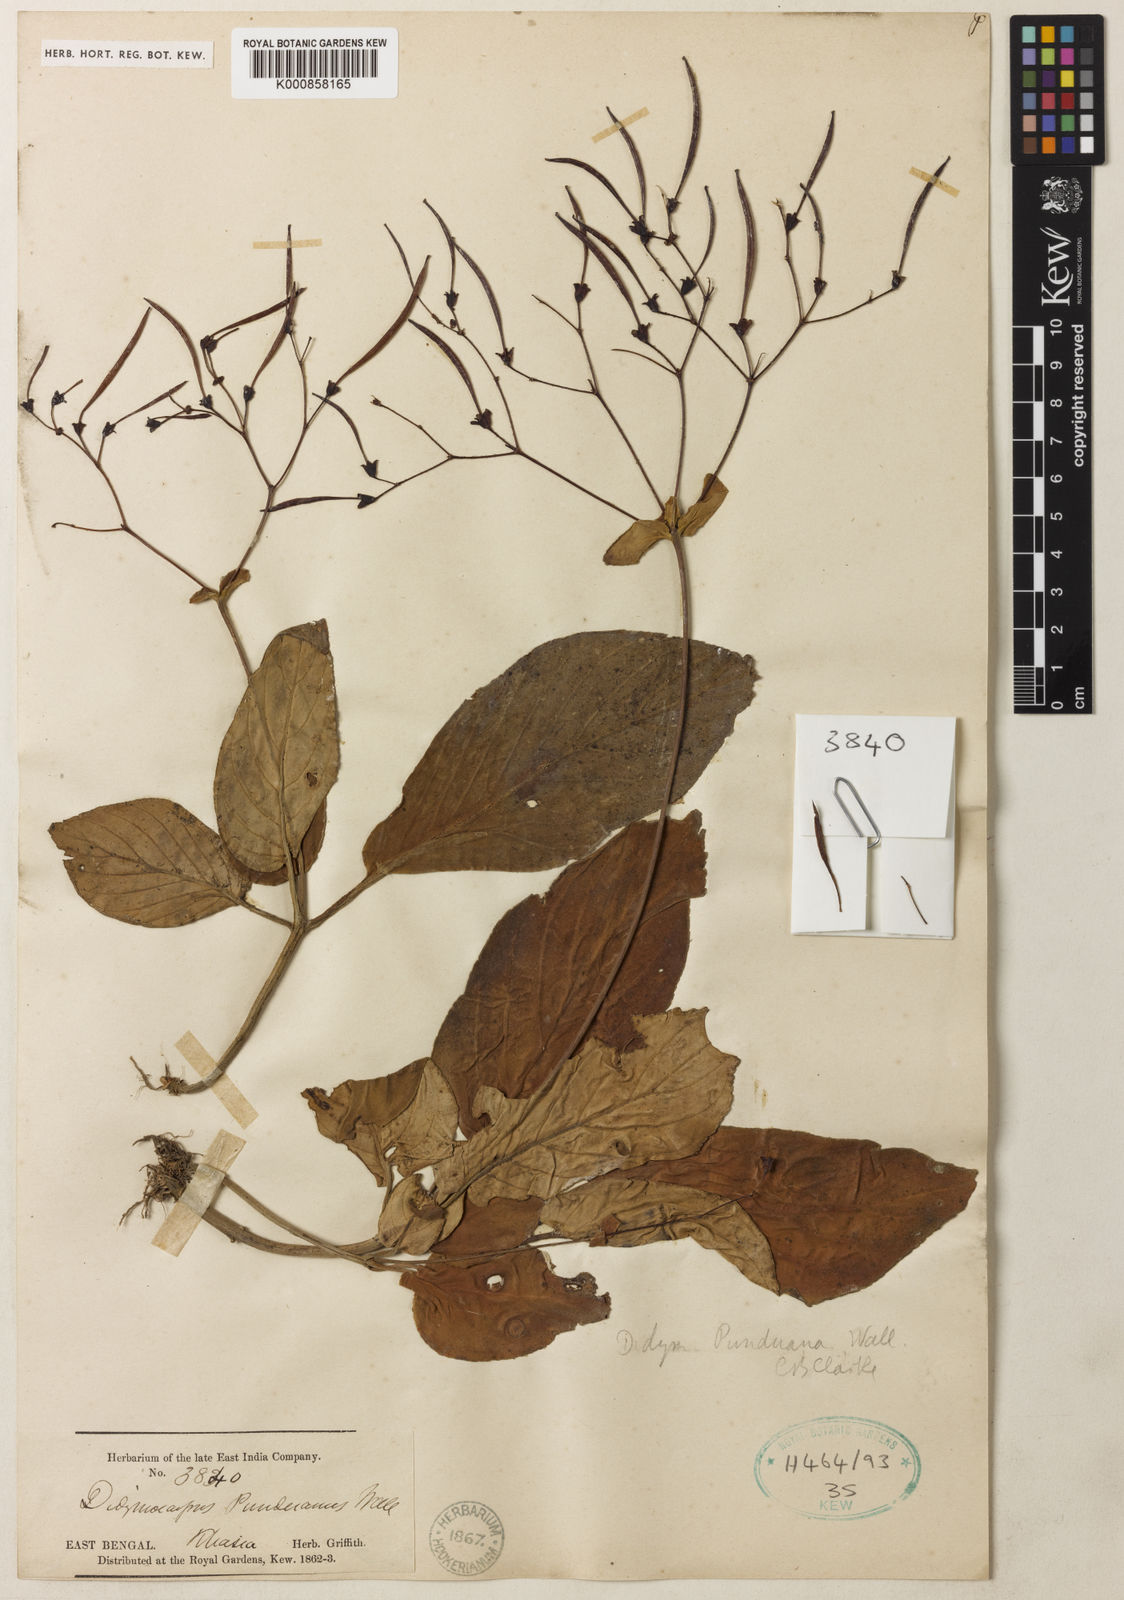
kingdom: Plantae
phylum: Tracheophyta
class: Magnoliopsida
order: Lamiales
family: Gesneriaceae
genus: Henckelia
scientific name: Henckelia
